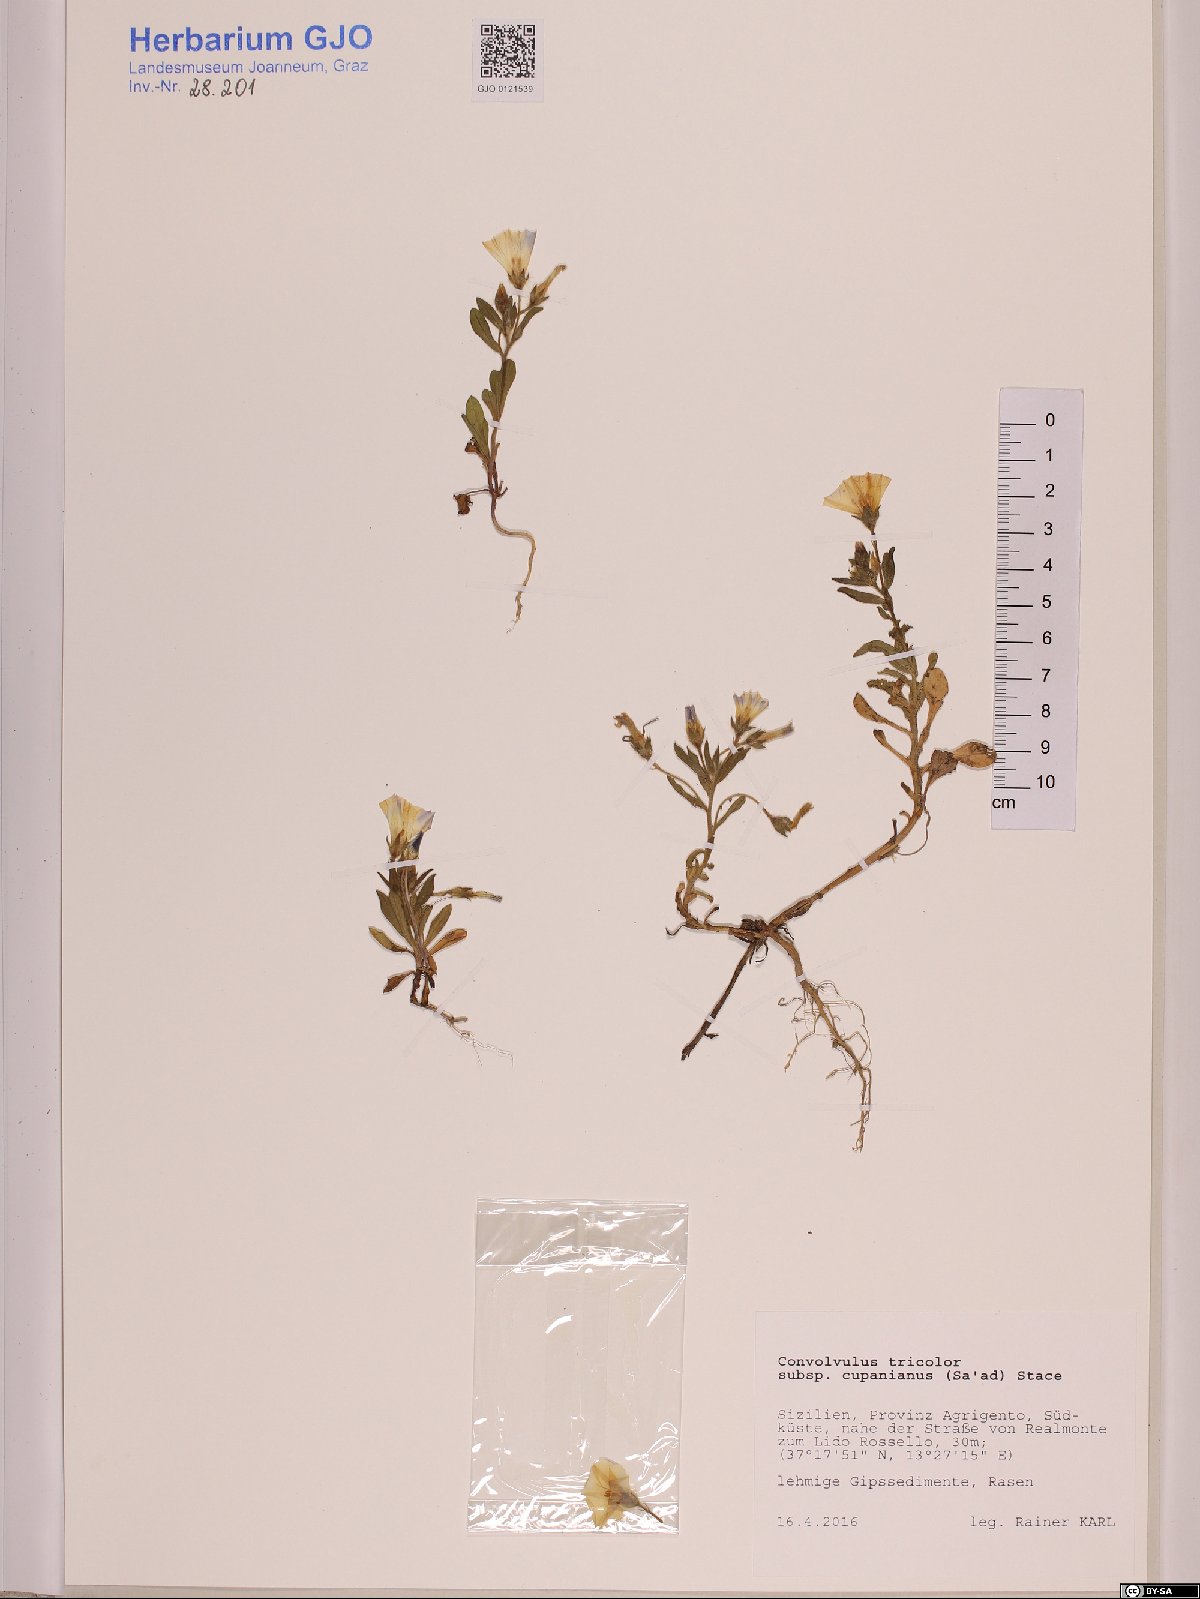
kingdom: Plantae
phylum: Tracheophyta
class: Magnoliopsida
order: Solanales
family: Convolvulaceae
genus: Convolvulus
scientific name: Convolvulus tricolor
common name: Dwarf morning-glory
